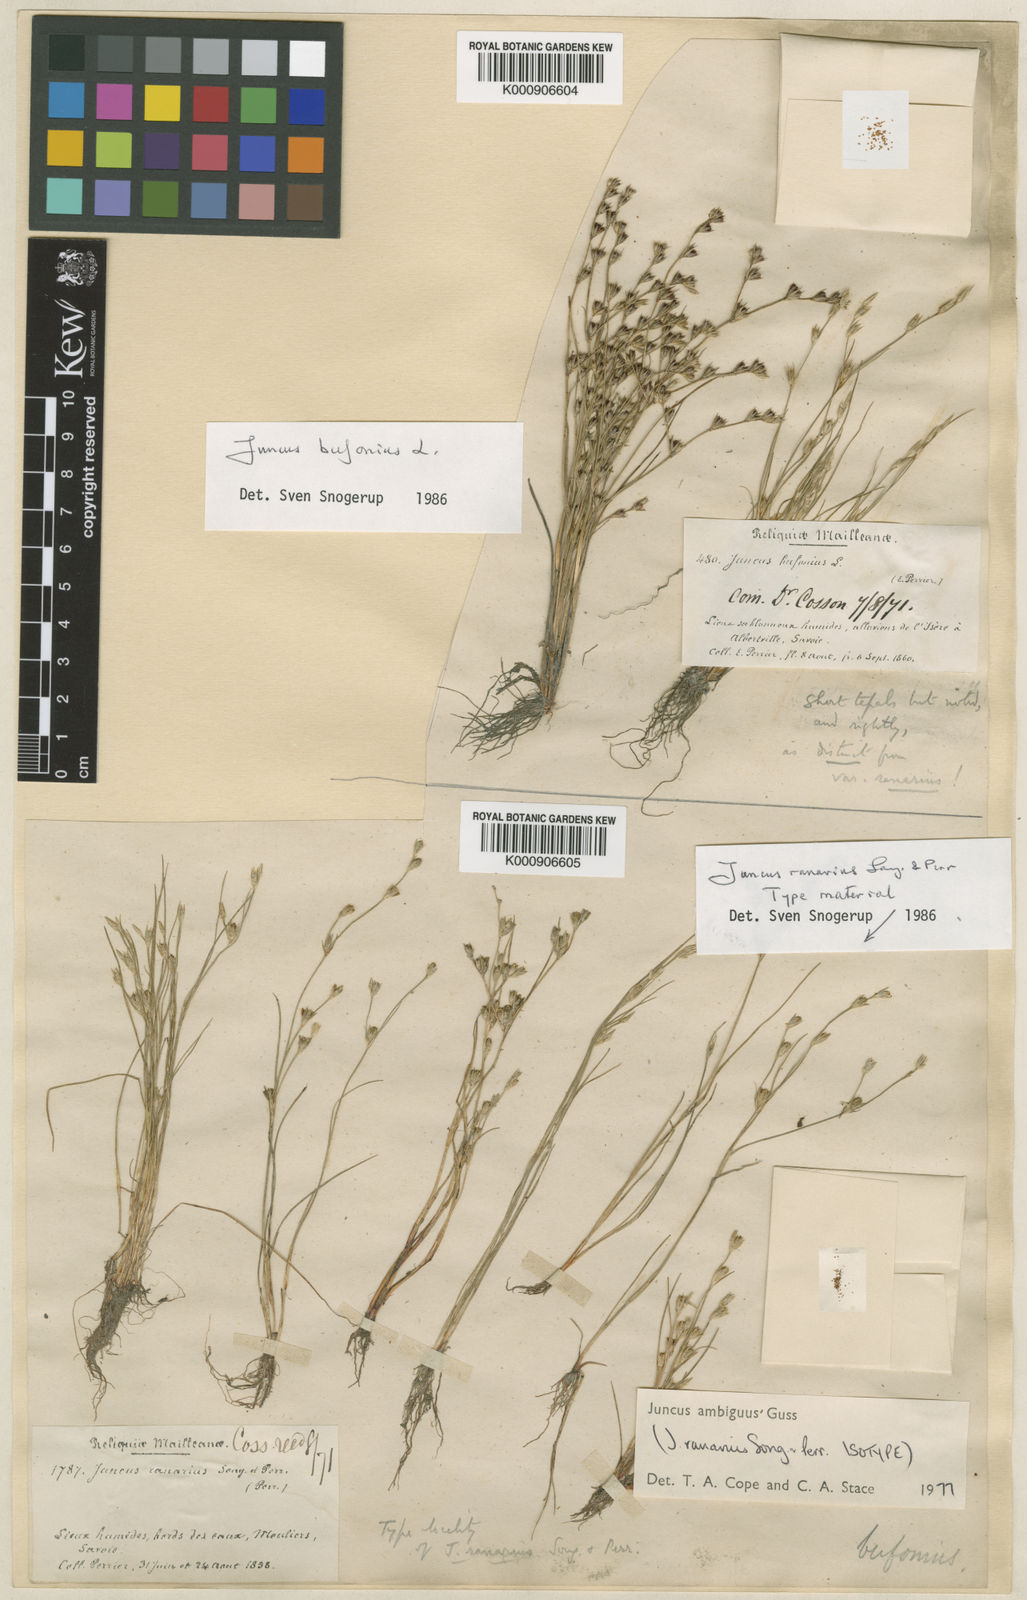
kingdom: Plantae
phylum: Tracheophyta
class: Liliopsida
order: Poales
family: Juncaceae
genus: Juncus
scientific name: Juncus hybridus
